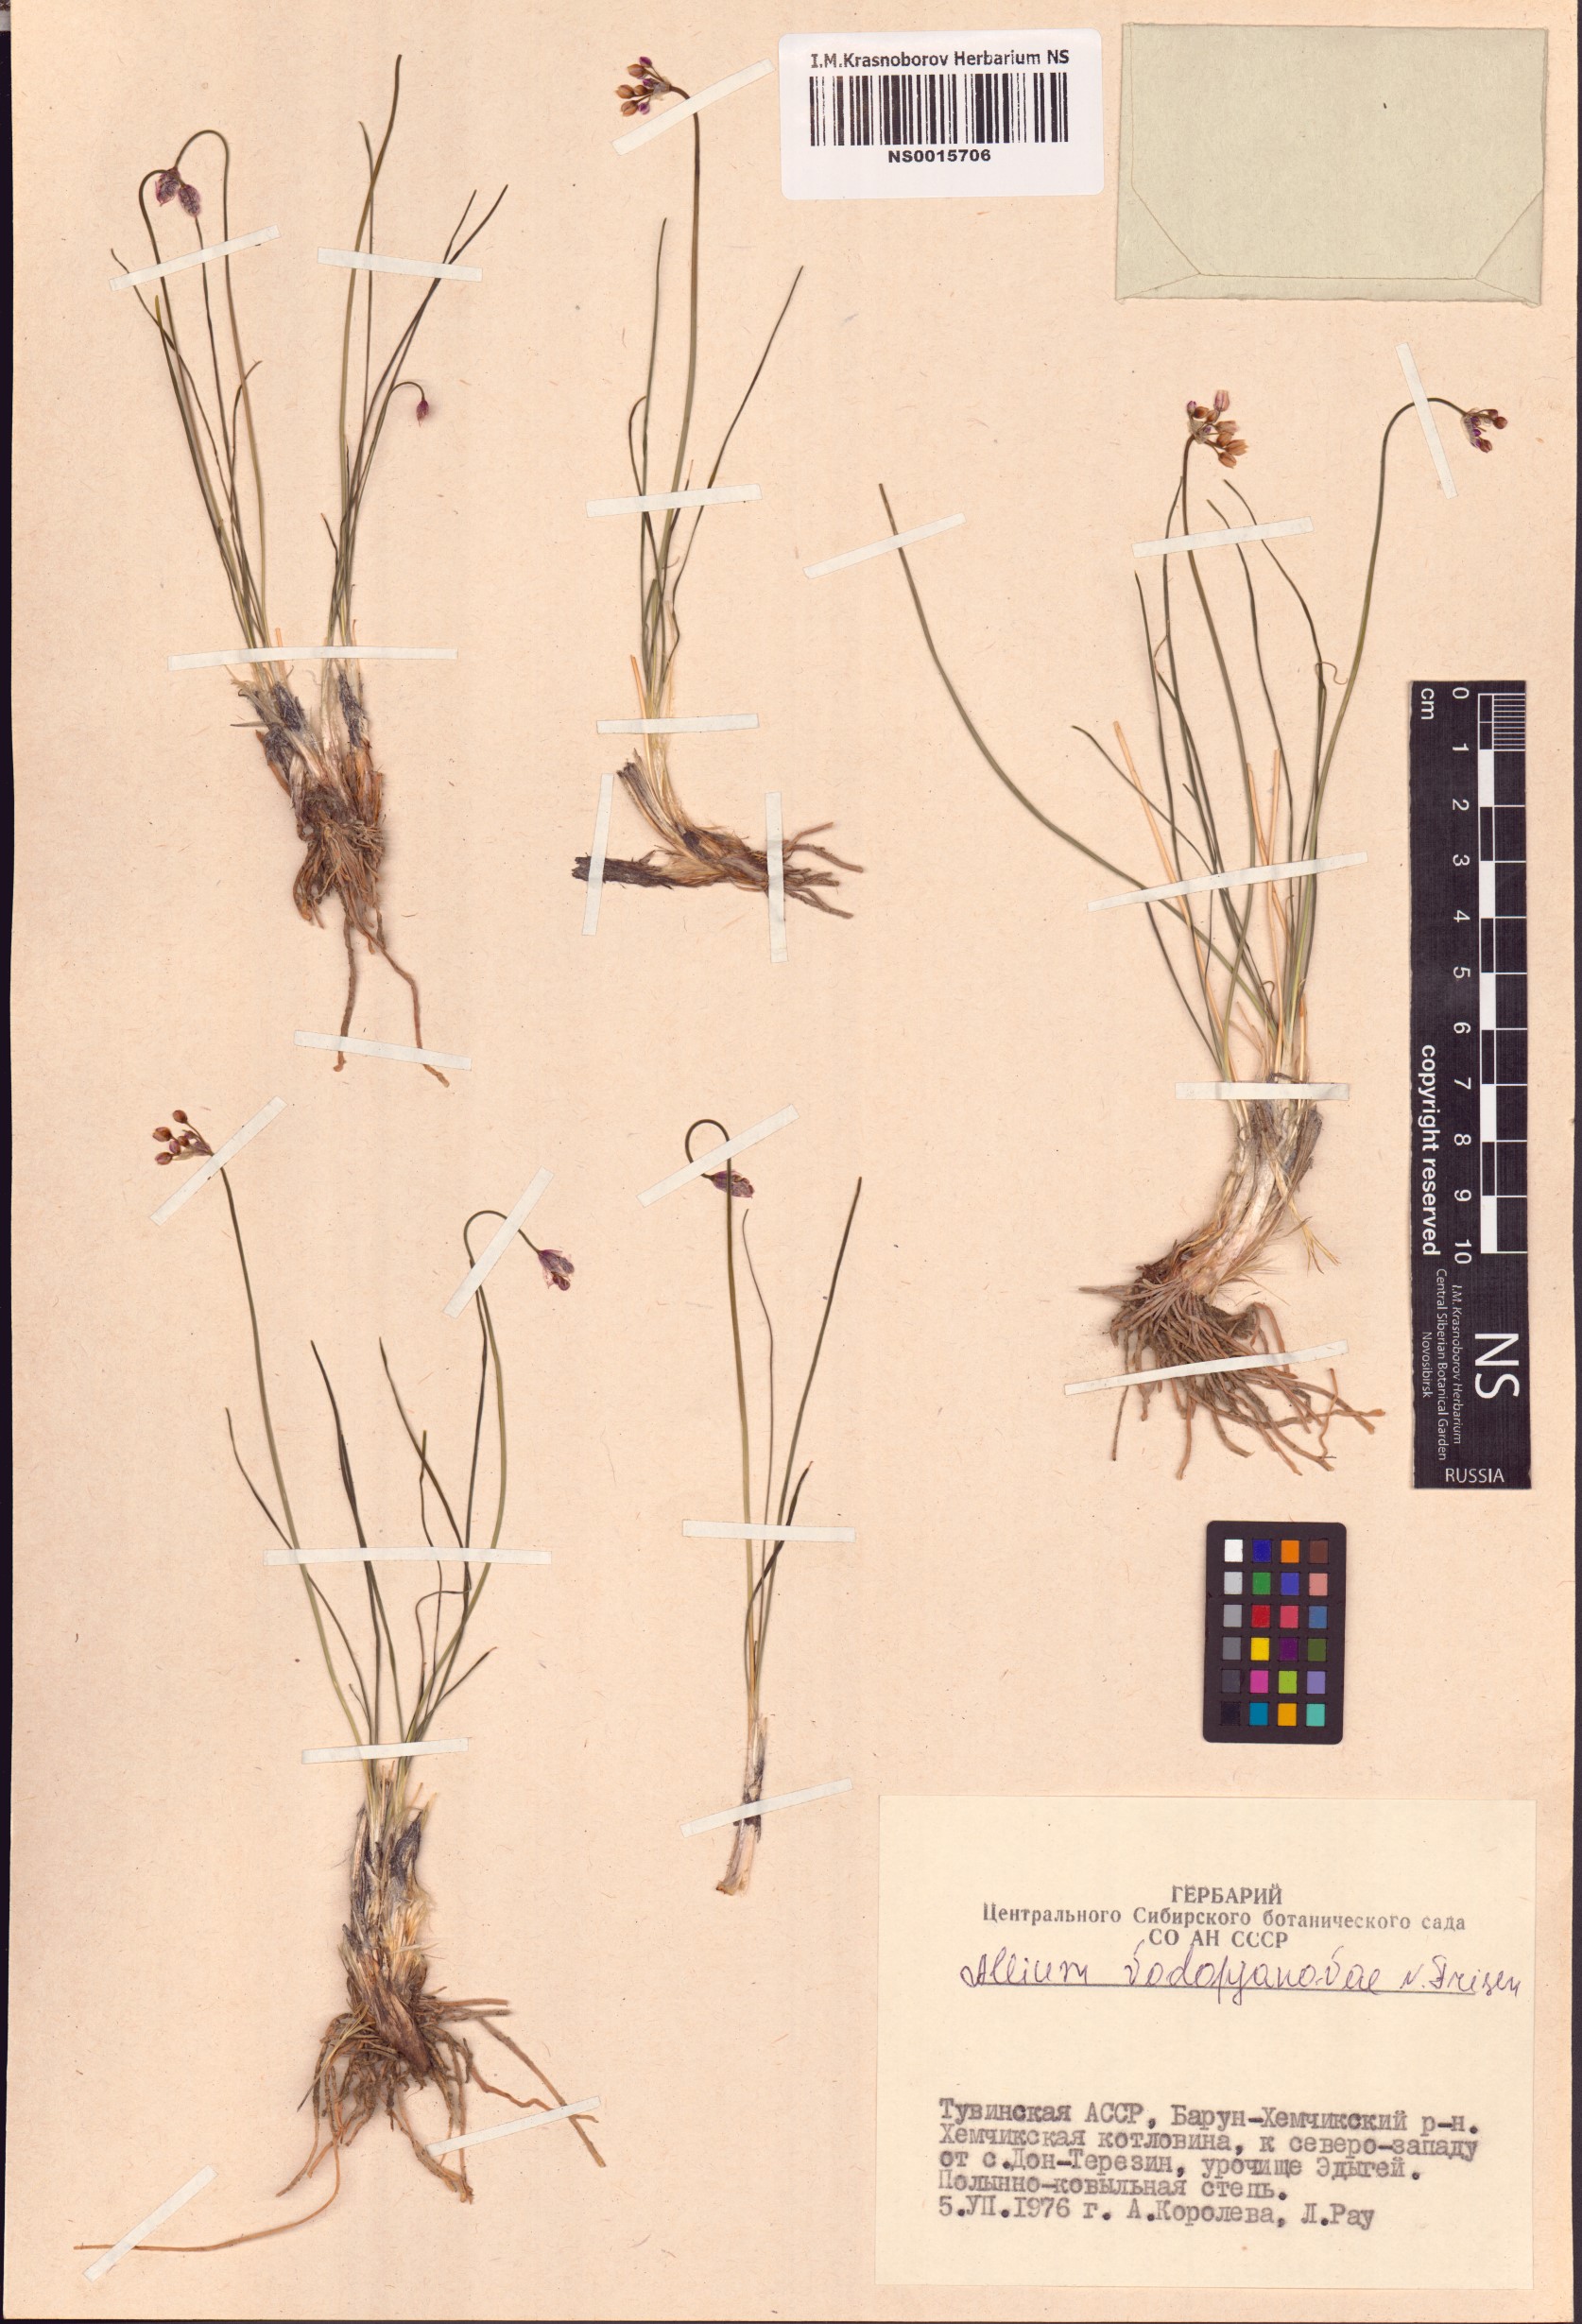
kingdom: Plantae
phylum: Tracheophyta
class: Liliopsida
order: Asparagales
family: Amaryllidaceae
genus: Allium
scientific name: Allium vodopjanovae
